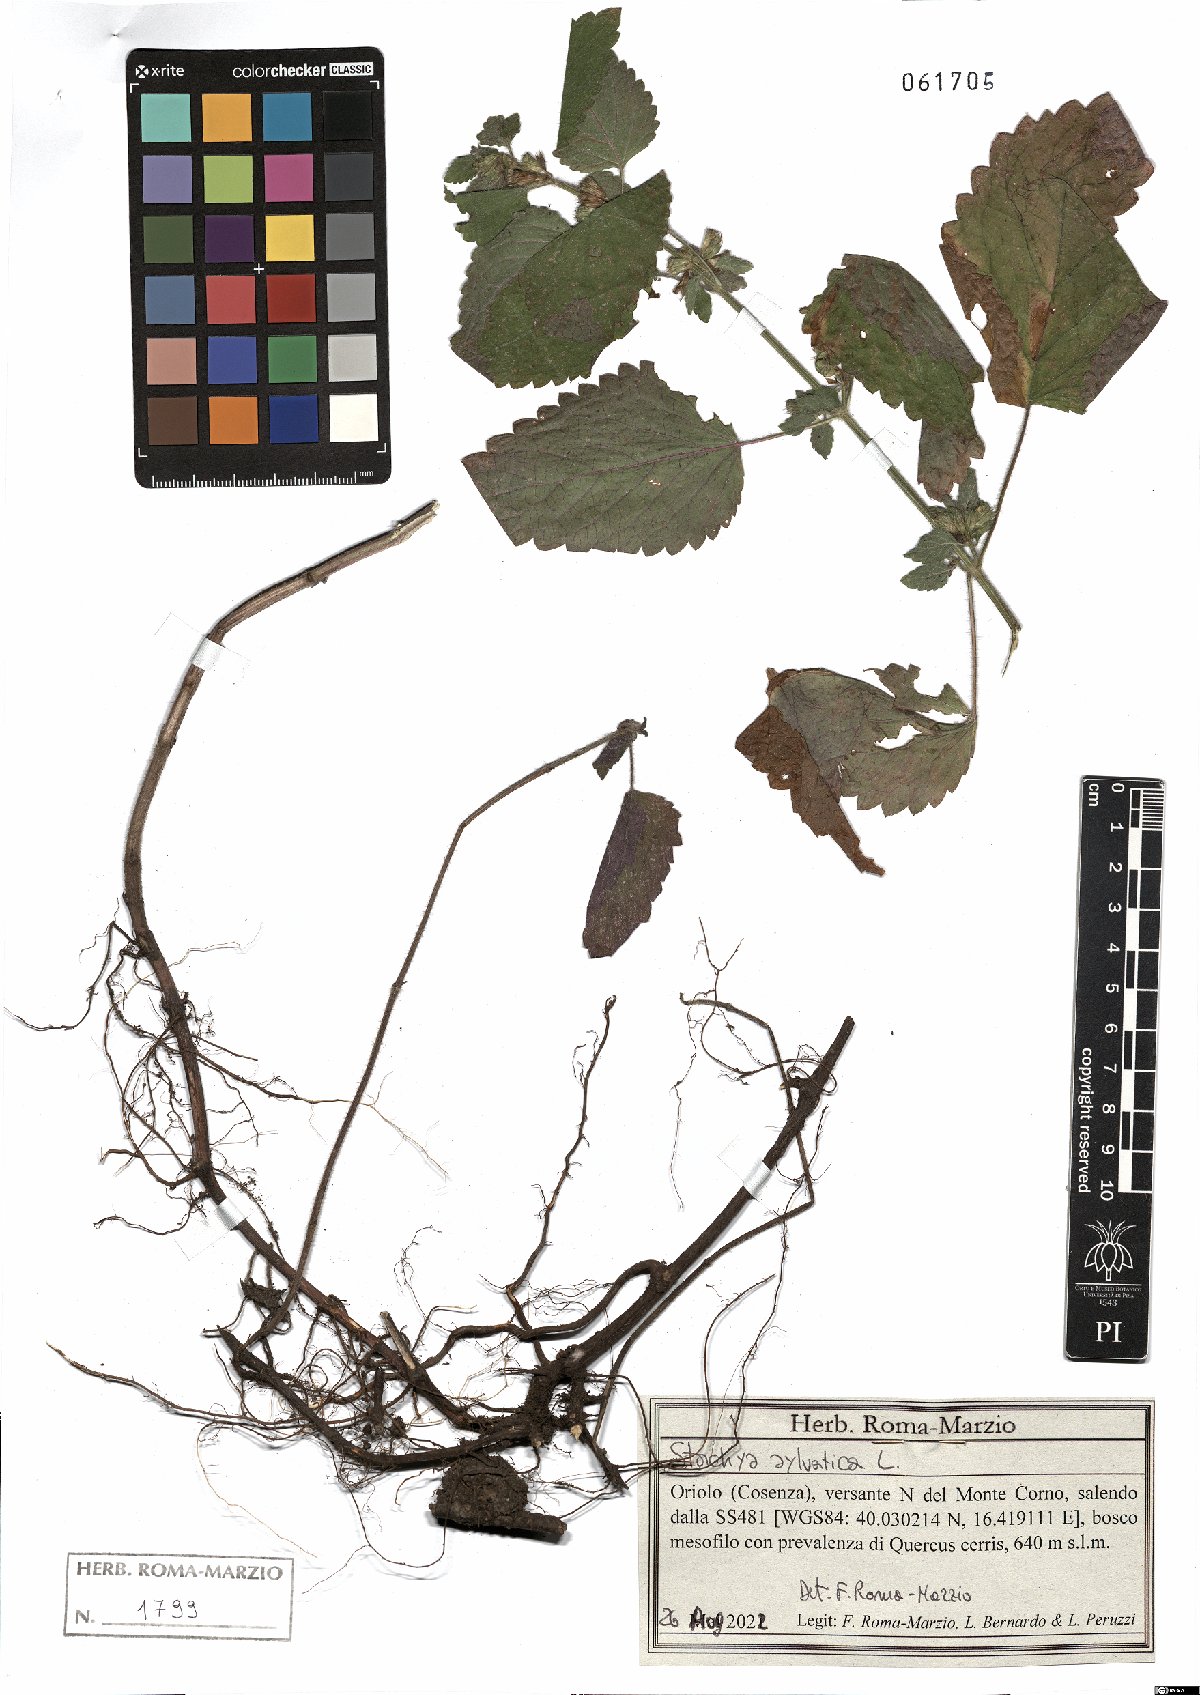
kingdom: Plantae
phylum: Tracheophyta
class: Magnoliopsida
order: Lamiales
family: Lamiaceae
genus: Stachys
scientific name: Stachys sylvatica
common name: Hedge woundwort
